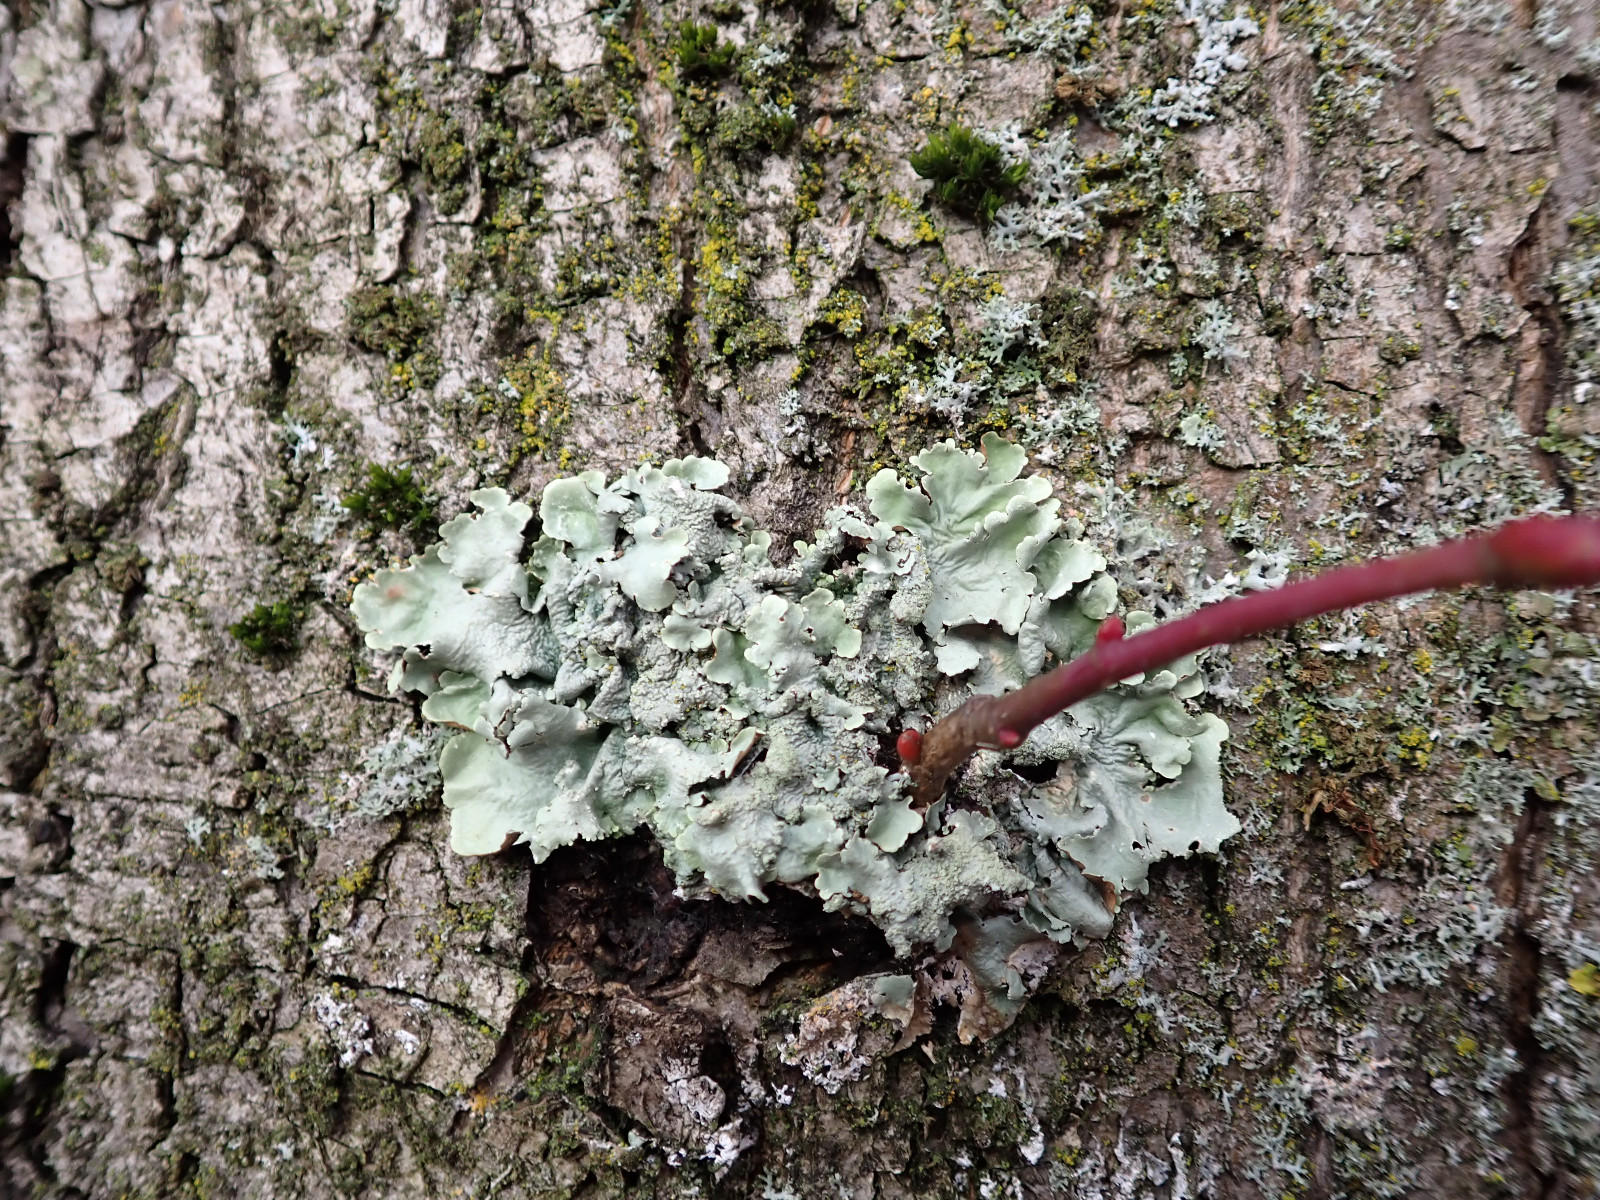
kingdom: Fungi
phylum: Ascomycota
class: Lecanoromycetes
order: Lecanorales
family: Parmeliaceae
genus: Flavoparmelia
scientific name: Flavoparmelia caperata
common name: gulgrøn skållav
